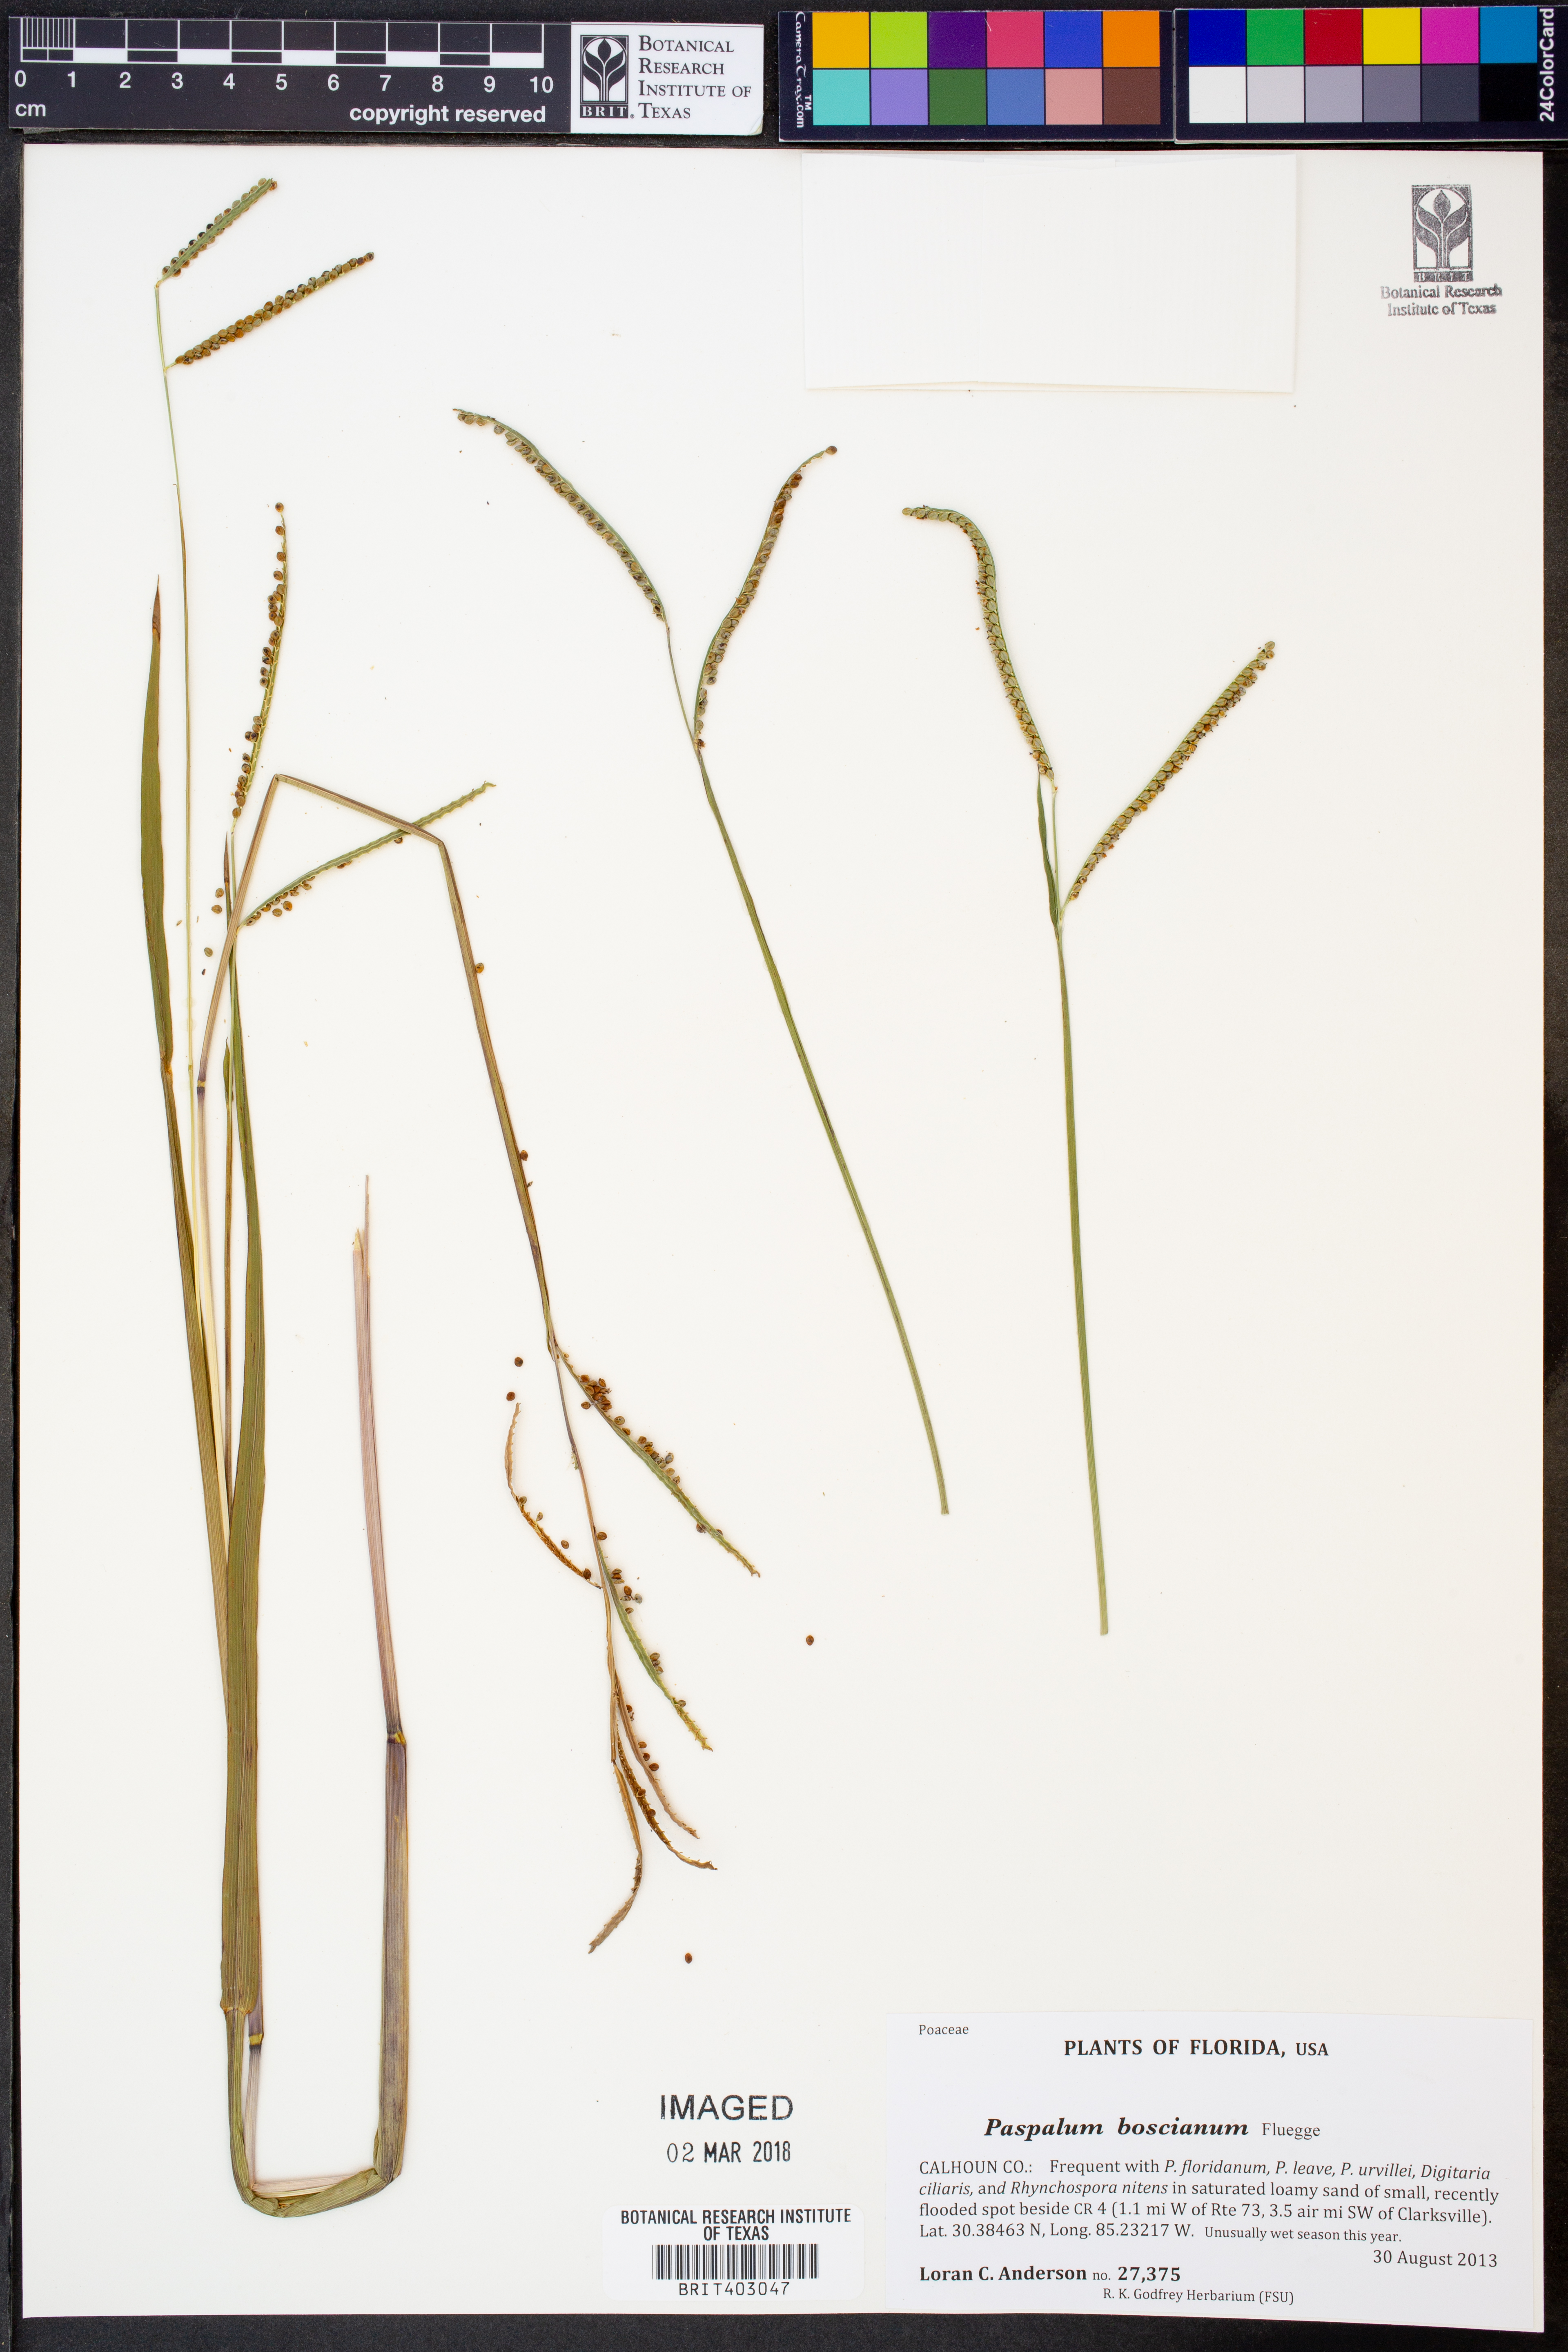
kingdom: Plantae
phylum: Tracheophyta
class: Liliopsida
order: Poales
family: Poaceae
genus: Paspalum
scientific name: Paspalum scrobiculatum
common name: Kodo millet
